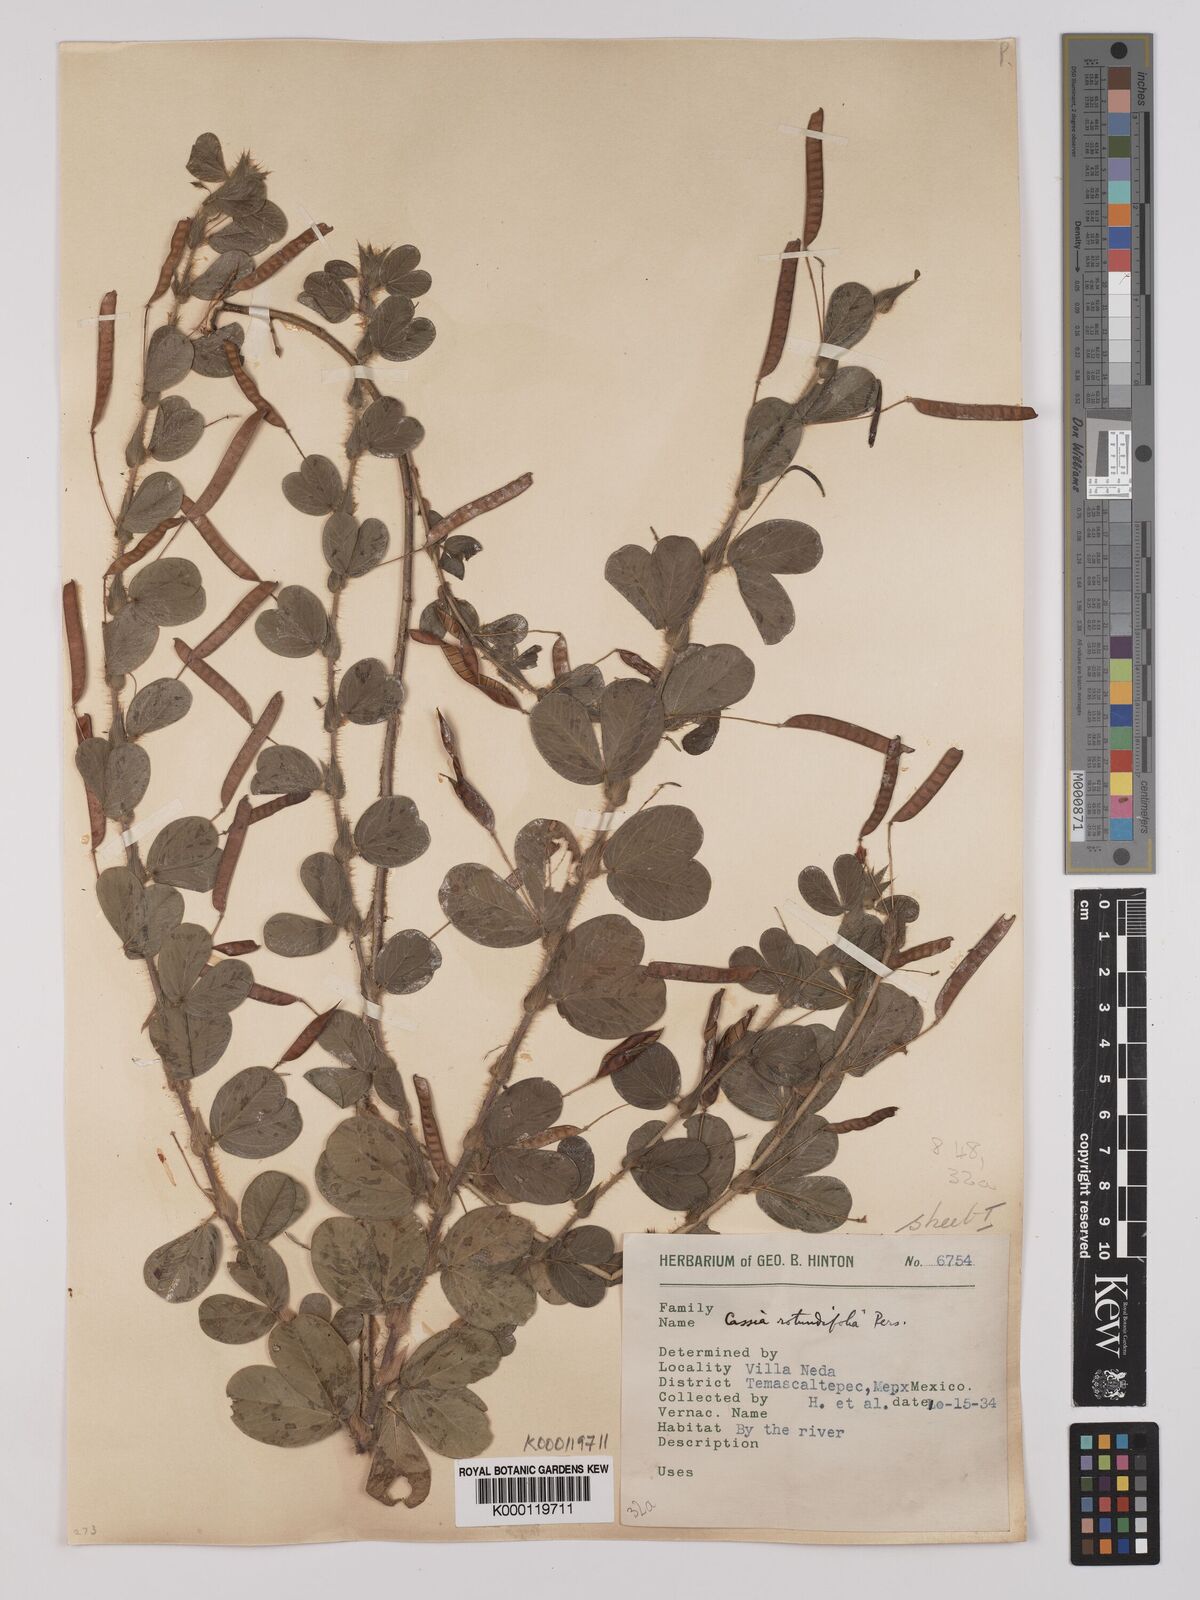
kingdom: Plantae
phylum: Tracheophyta
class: Magnoliopsida
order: Fabales
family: Fabaceae
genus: Chamaecrista
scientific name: Chamaecrista rotundifolia
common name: Round-leaf cassia
